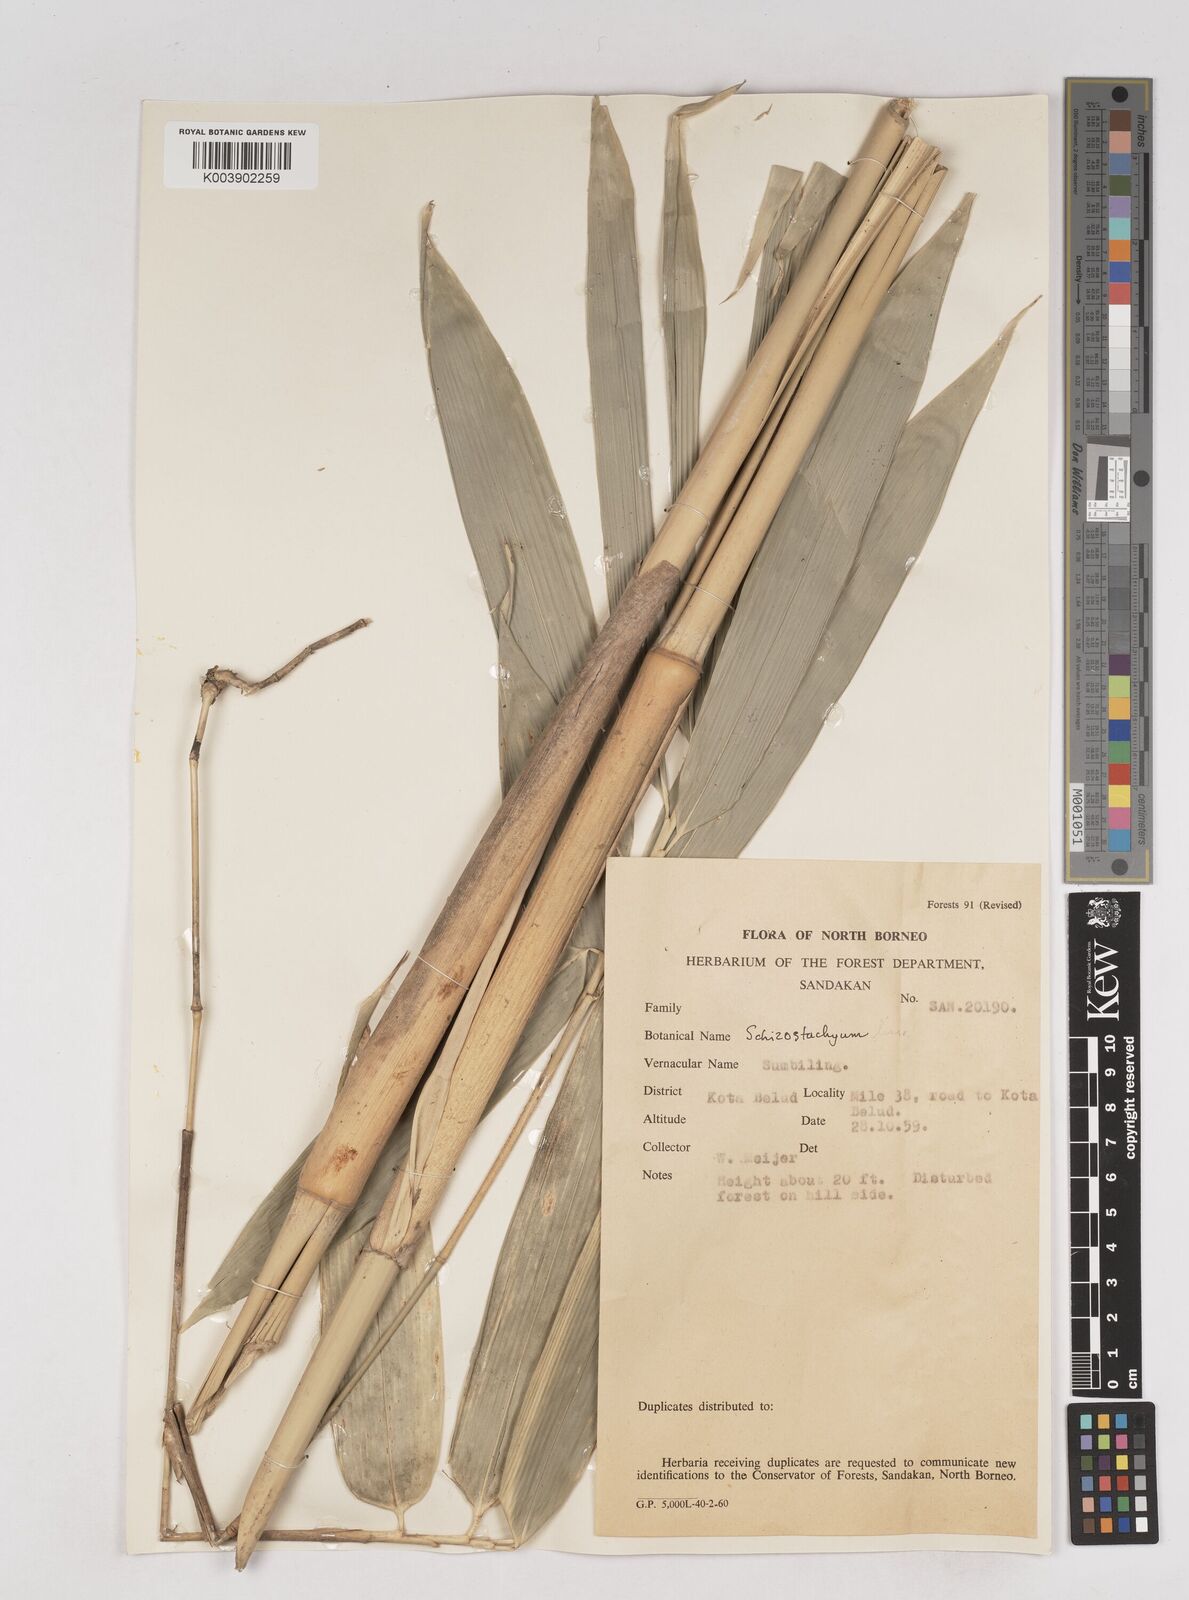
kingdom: Plantae
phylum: Tracheophyta
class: Liliopsida
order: Poales
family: Poaceae
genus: Schizostachyum
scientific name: Schizostachyum lima
